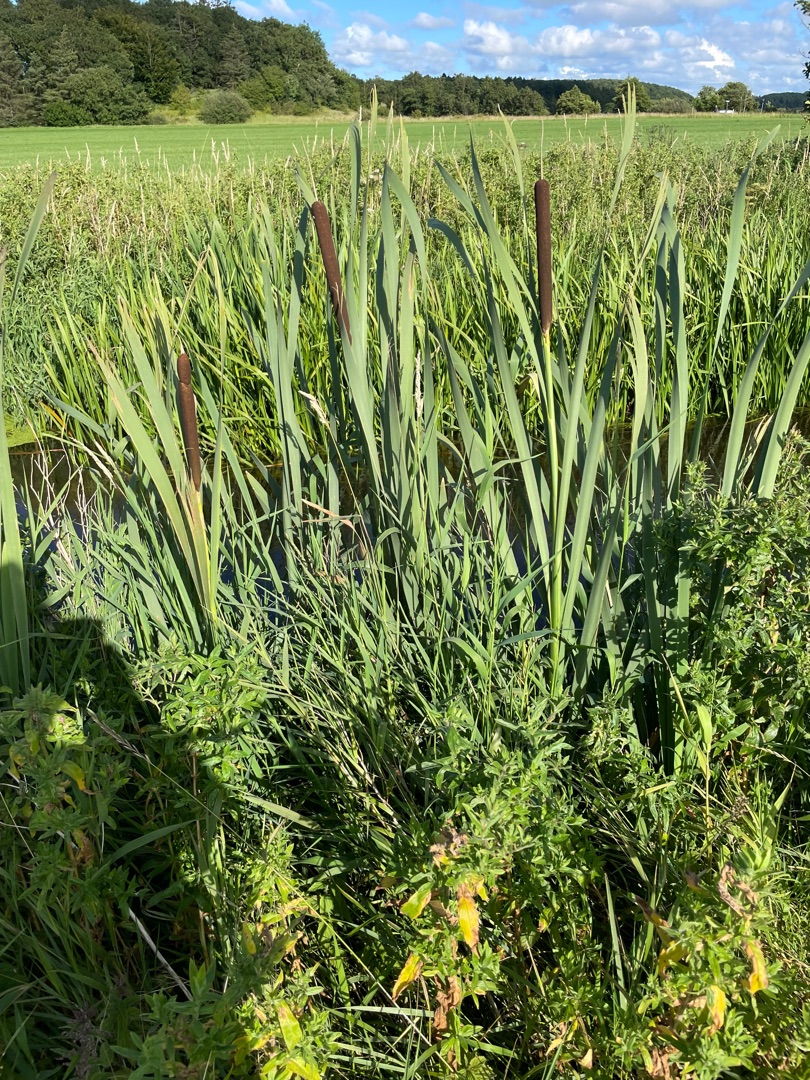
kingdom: Plantae
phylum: Tracheophyta
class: Liliopsida
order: Poales
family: Typhaceae
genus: Typha
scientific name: Typha latifolia
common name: Bredbladet dunhammer
